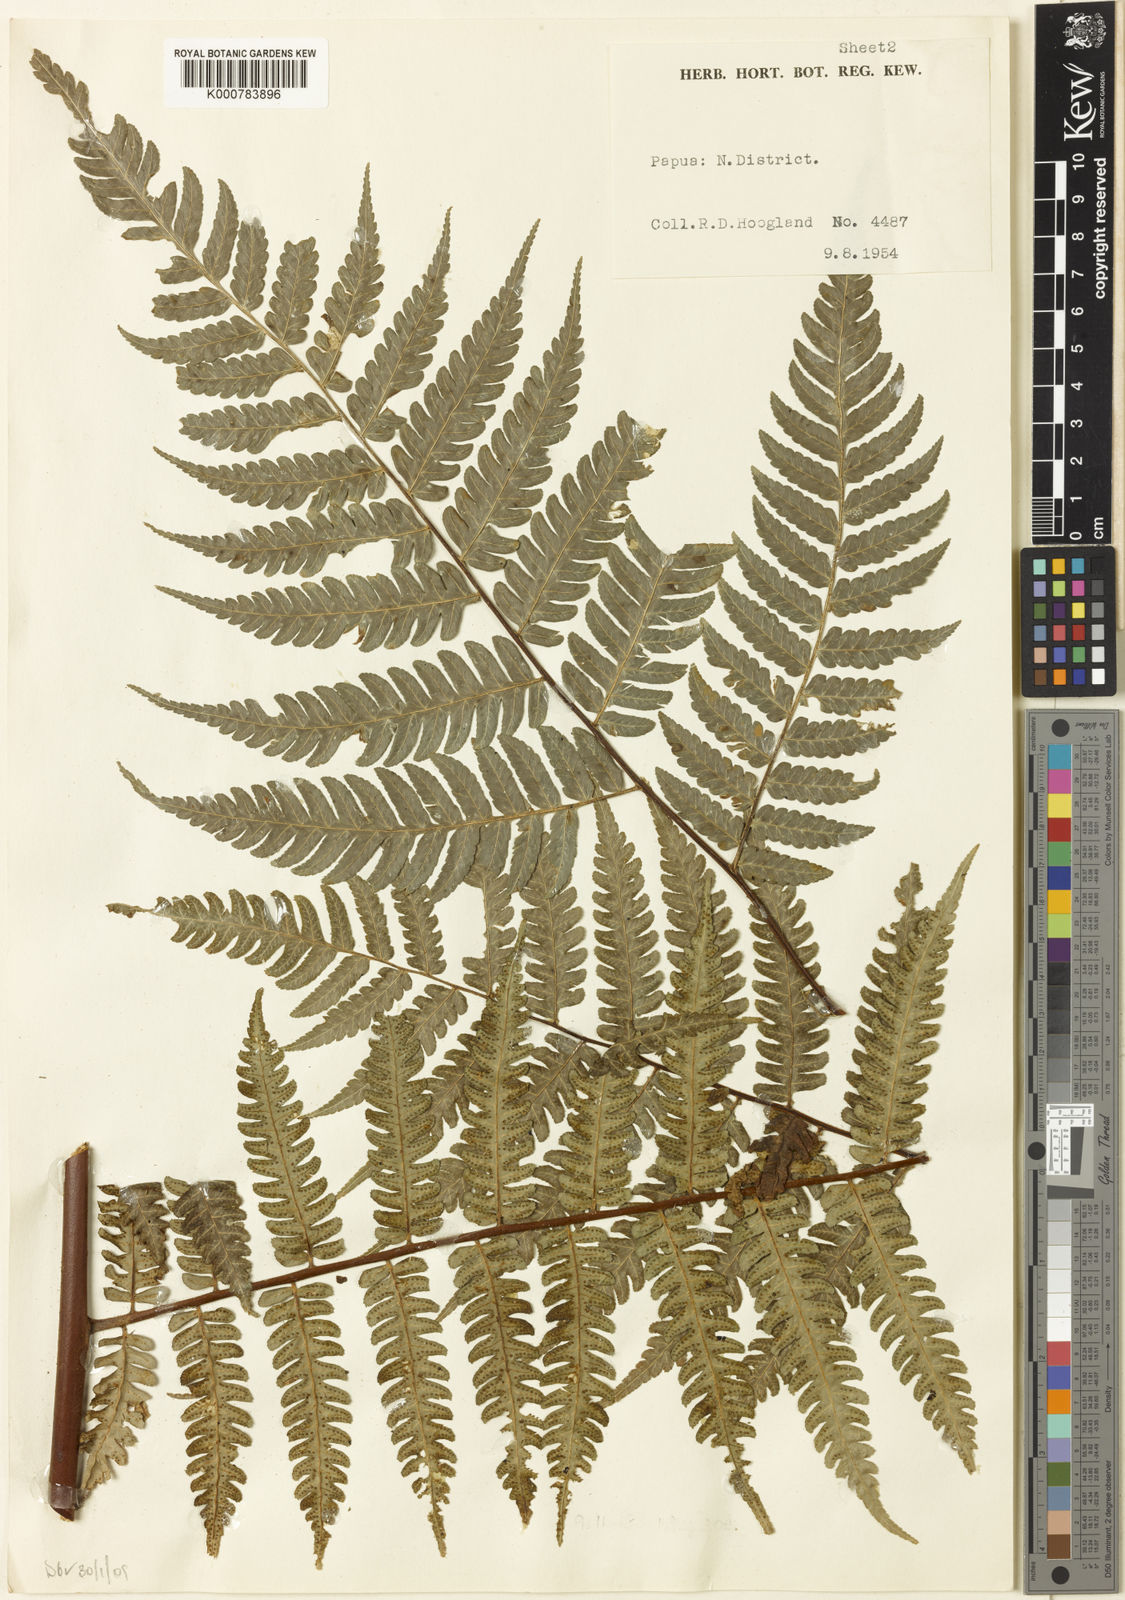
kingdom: Plantae
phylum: Tracheophyta
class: Polypodiopsida
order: Cyatheales
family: Cyatheaceae
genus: Gymnosphaera
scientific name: Gymnosphaera rubella
